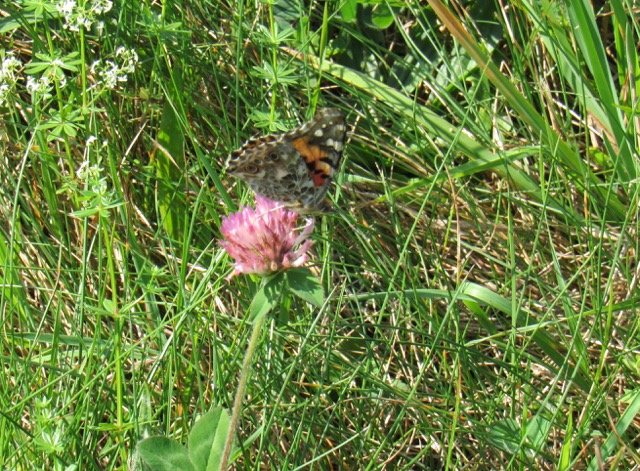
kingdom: Animalia
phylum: Arthropoda
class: Insecta
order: Lepidoptera
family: Nymphalidae
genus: Vanessa
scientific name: Vanessa cardui
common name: Painted Lady
